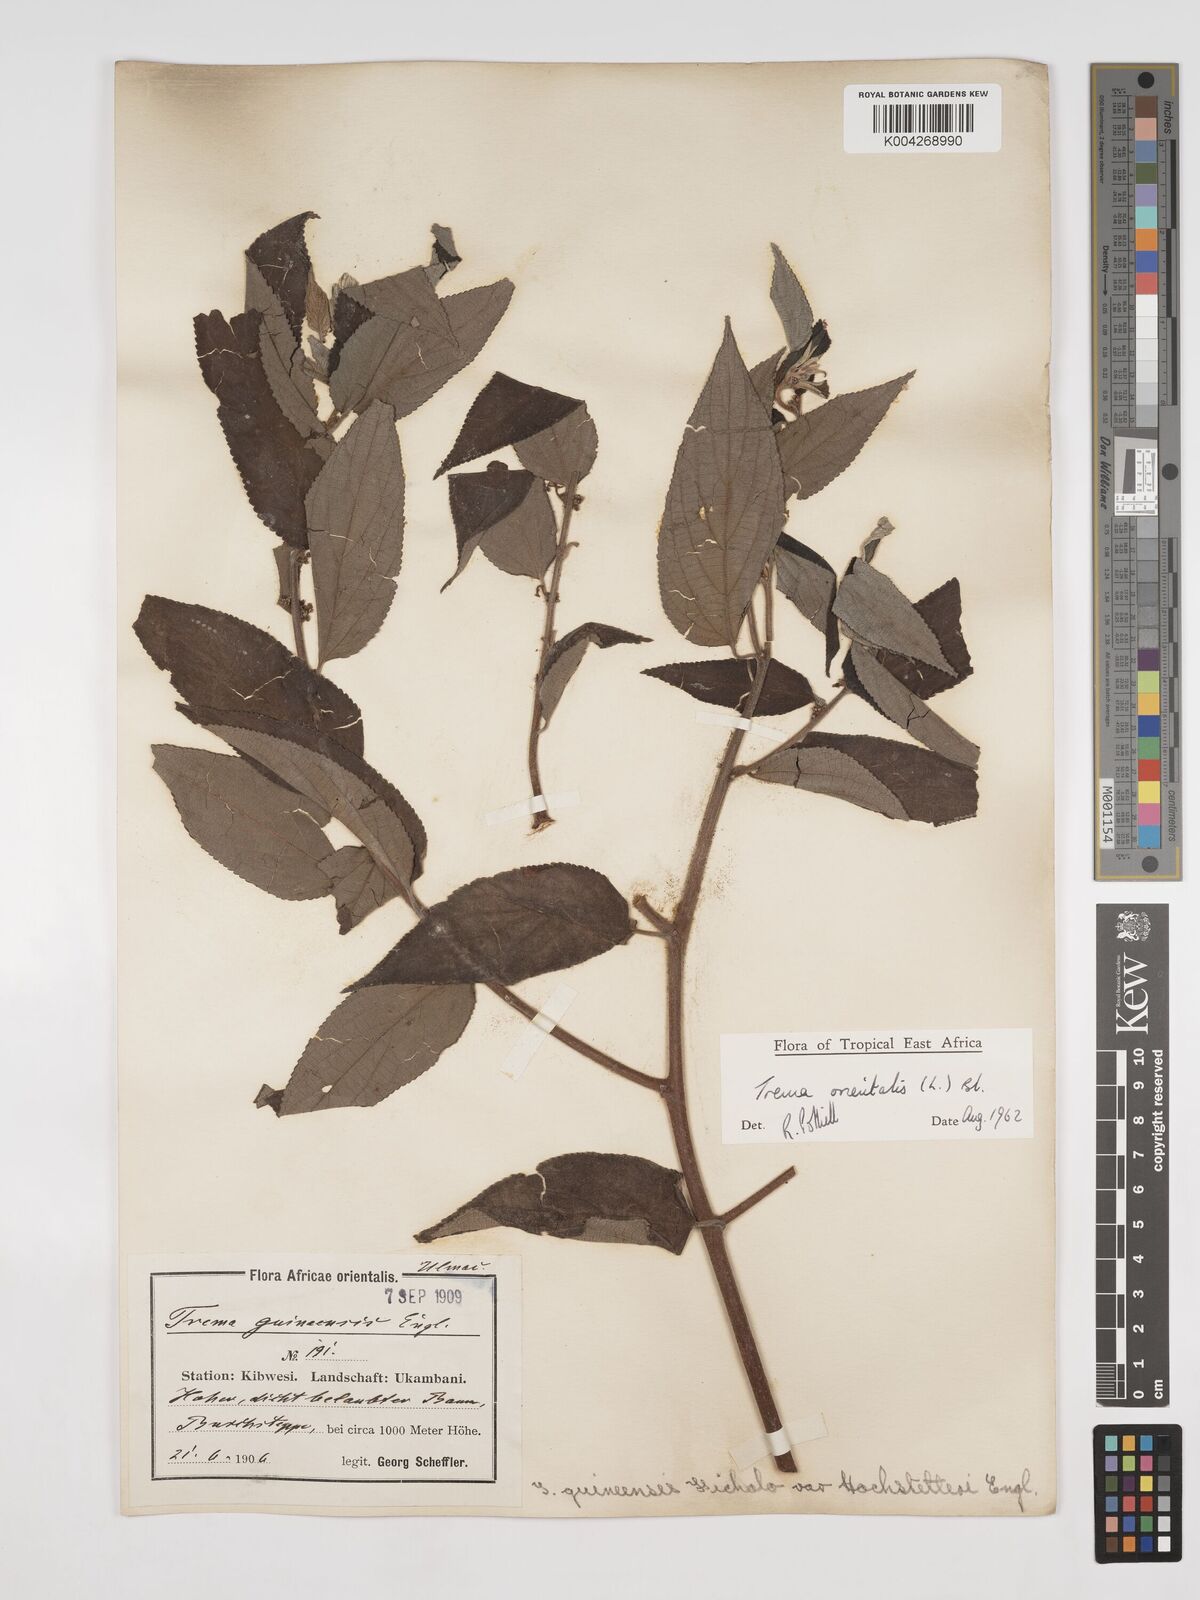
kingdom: Plantae
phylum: Tracheophyta
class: Magnoliopsida
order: Rosales
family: Cannabaceae
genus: Trema
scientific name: Trema orientale
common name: Indian charcoal tree
